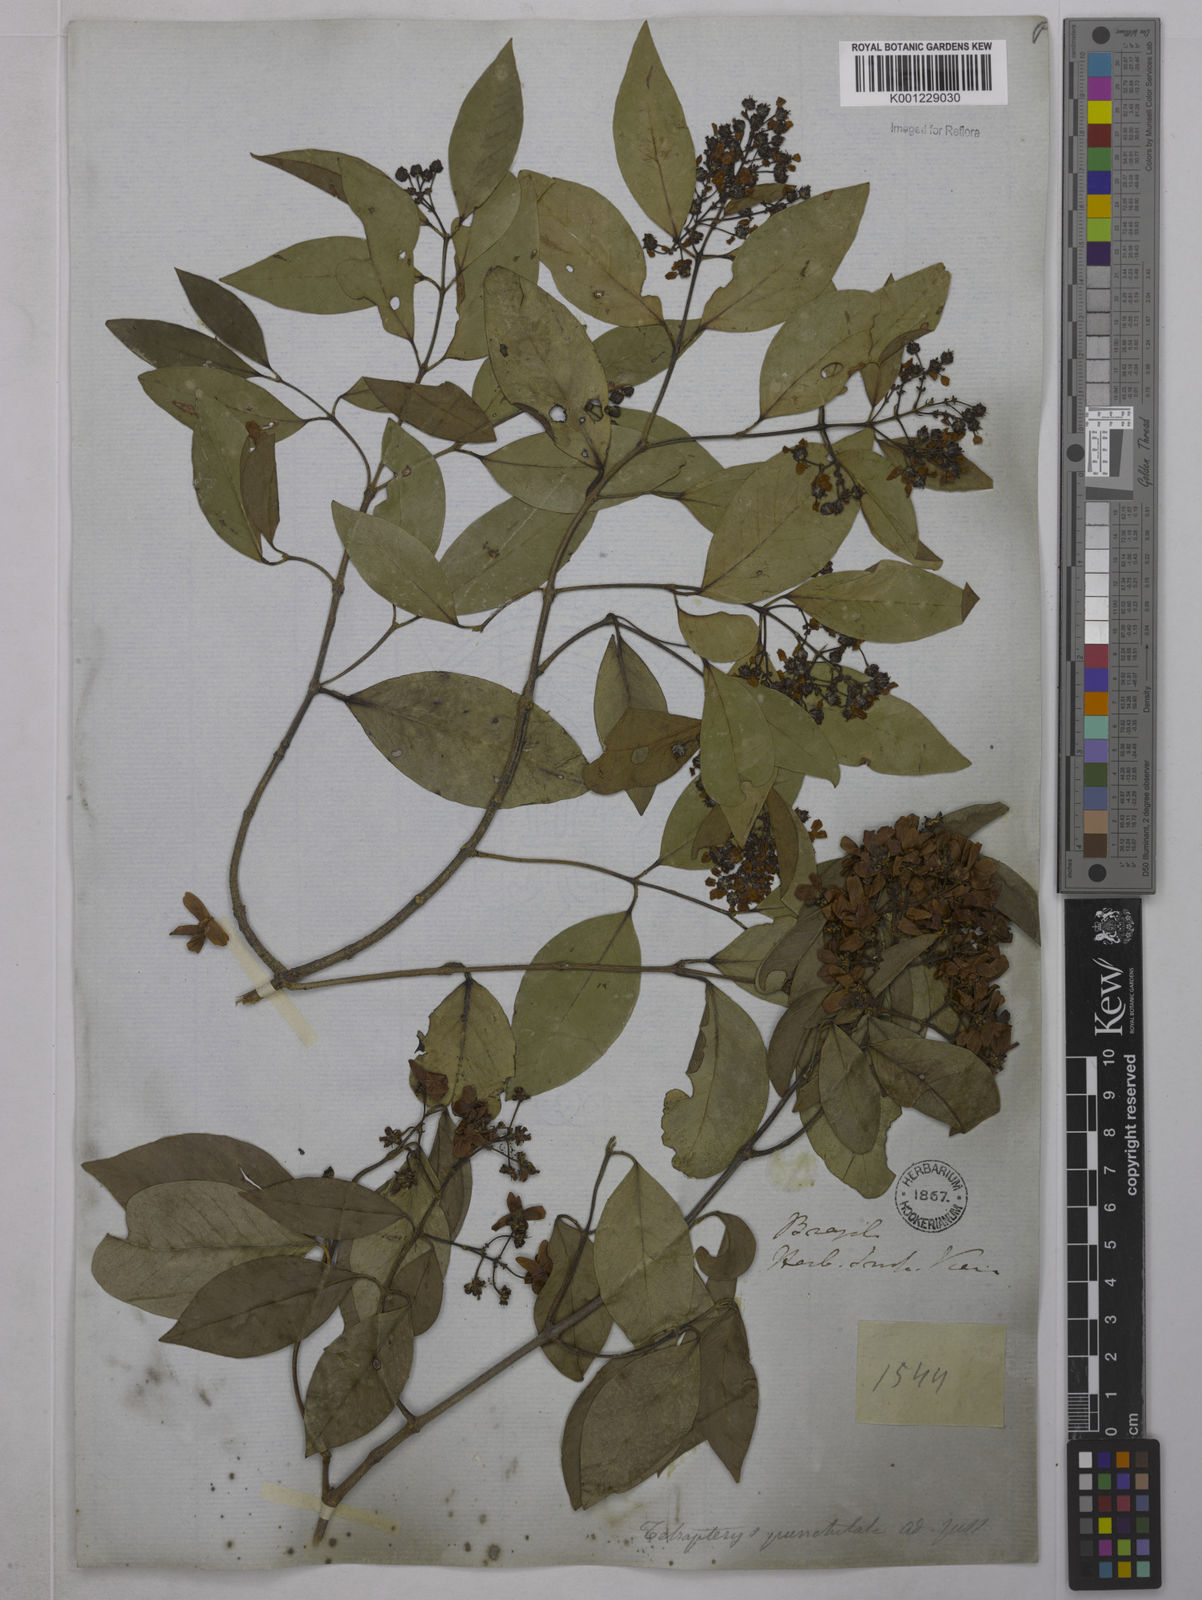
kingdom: Plantae
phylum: Tracheophyta
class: Magnoliopsida
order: Malpighiales
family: Malpighiaceae
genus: Niedenzuella
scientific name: Niedenzuella acutifolia
